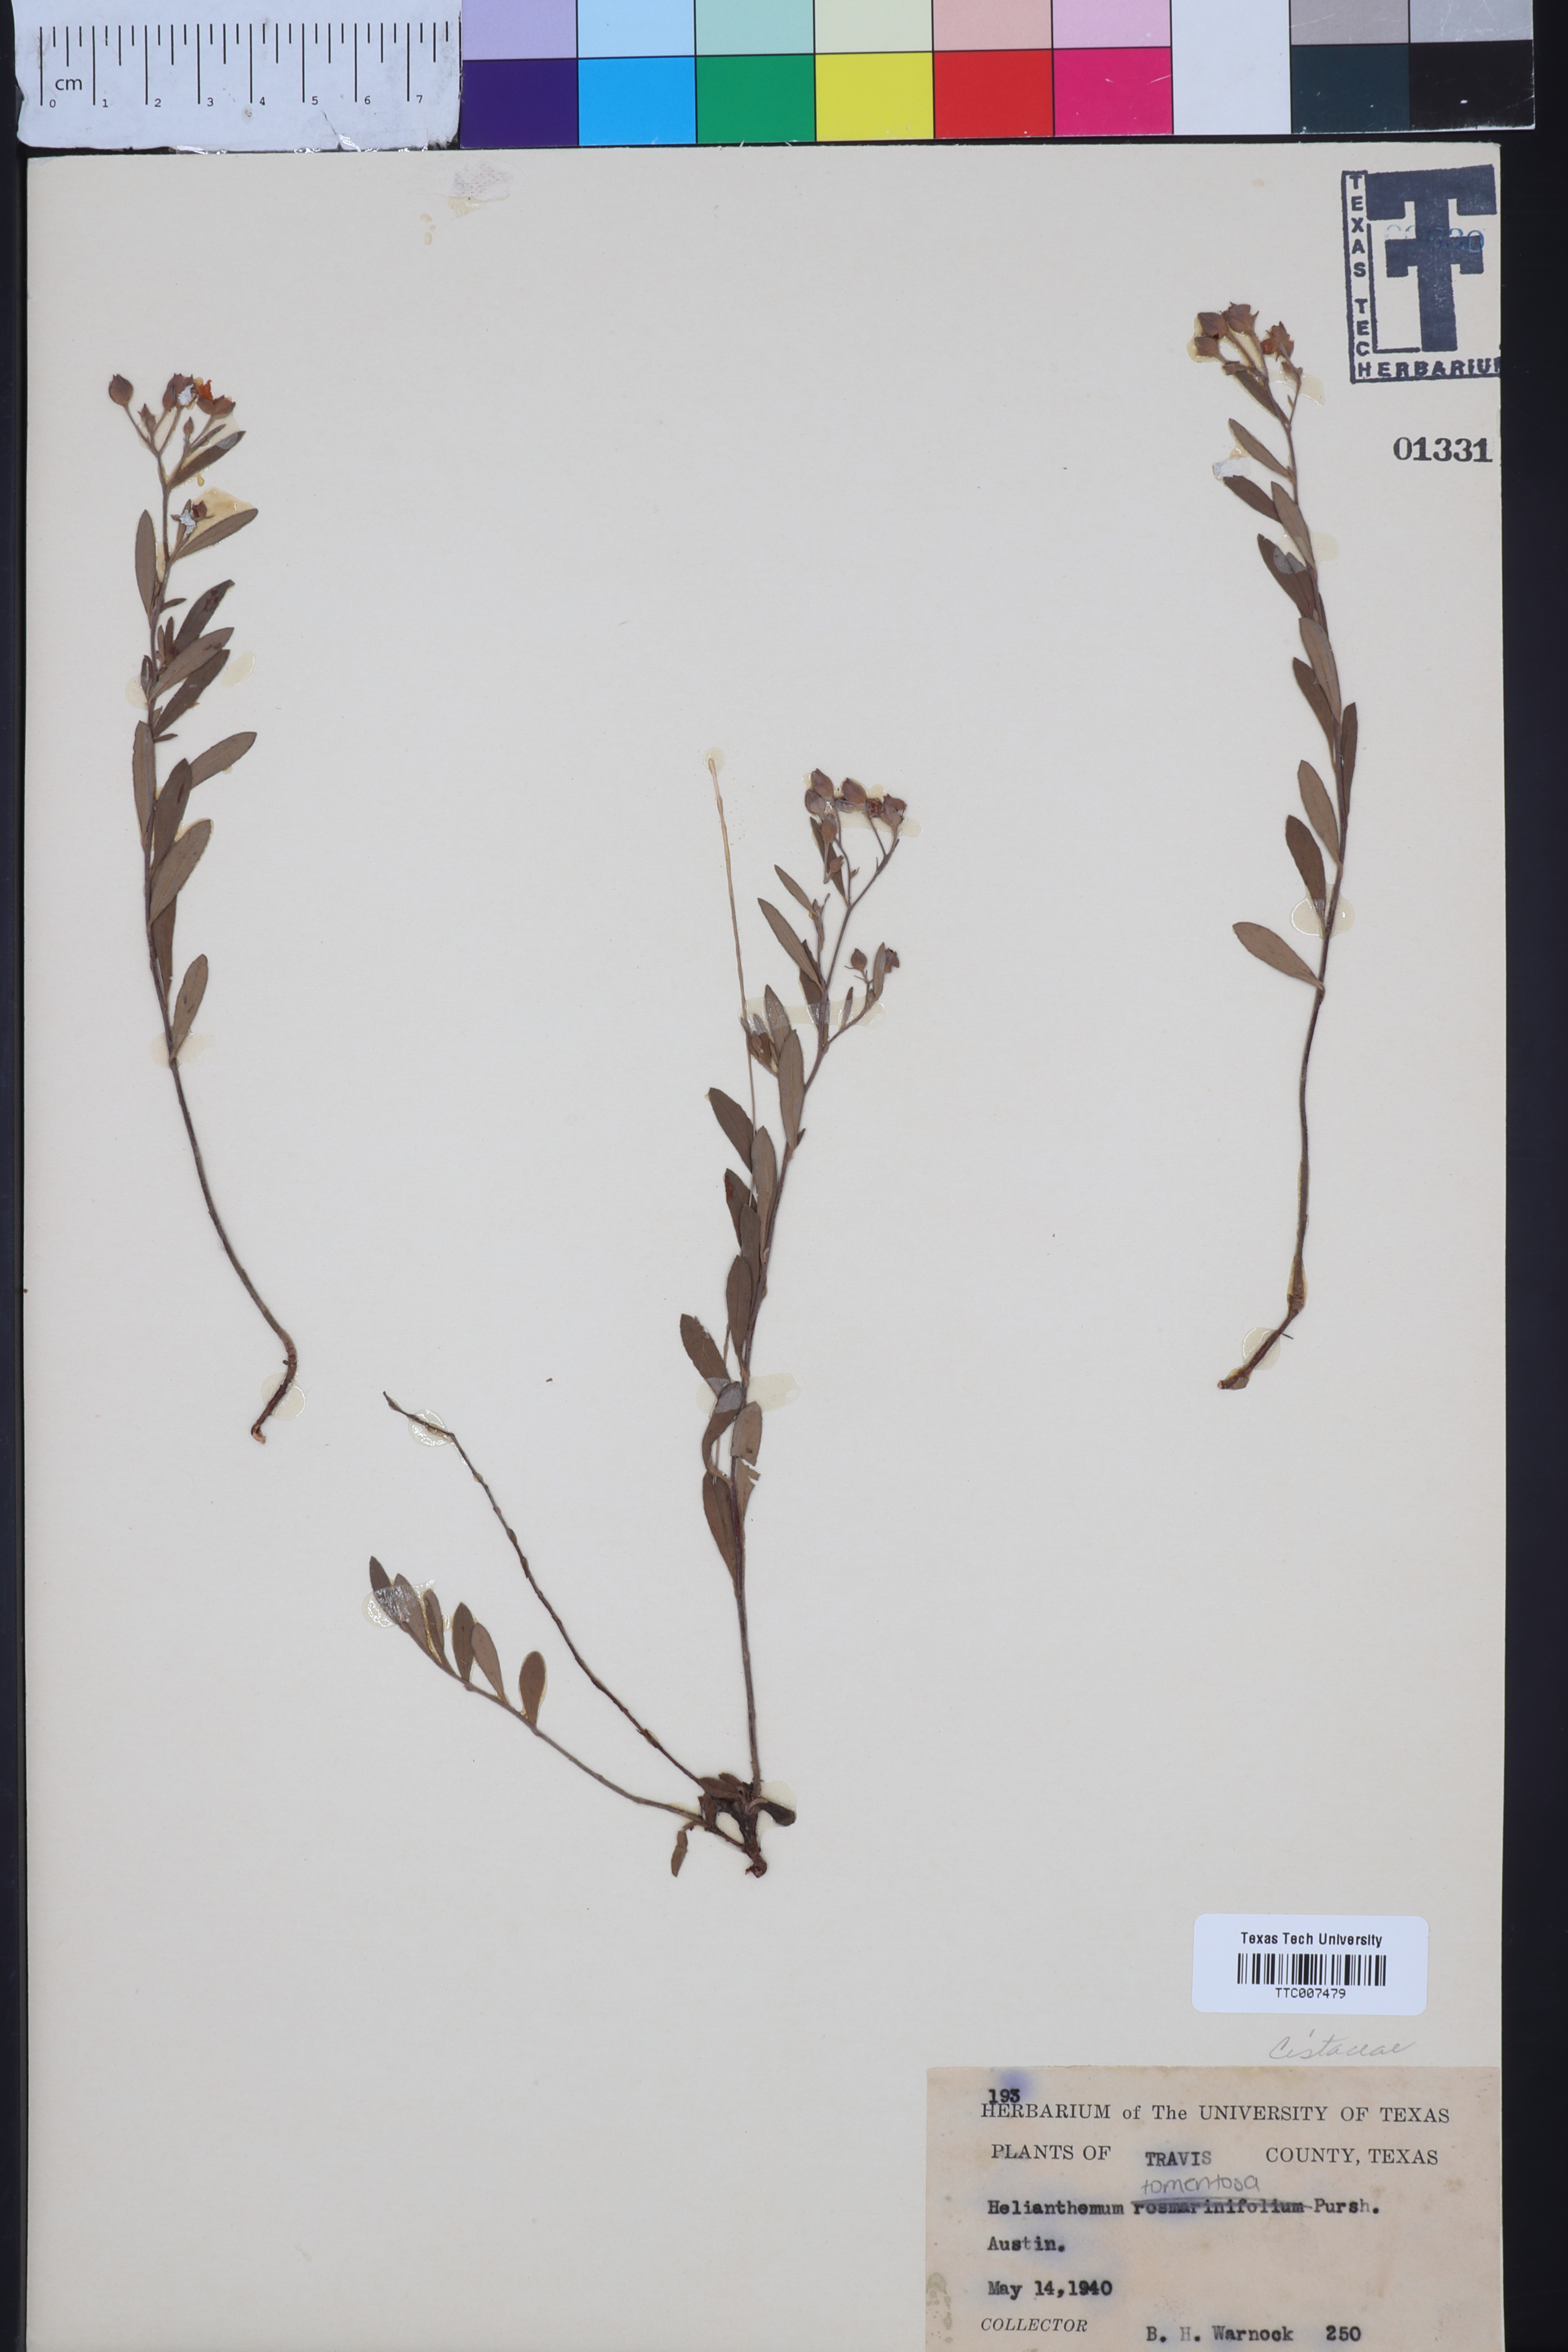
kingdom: Plantae
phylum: Tracheophyta
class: Magnoliopsida
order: Malvales
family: Cistaceae
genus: Crocanthemum
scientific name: Crocanthemum rosmarinifolium
